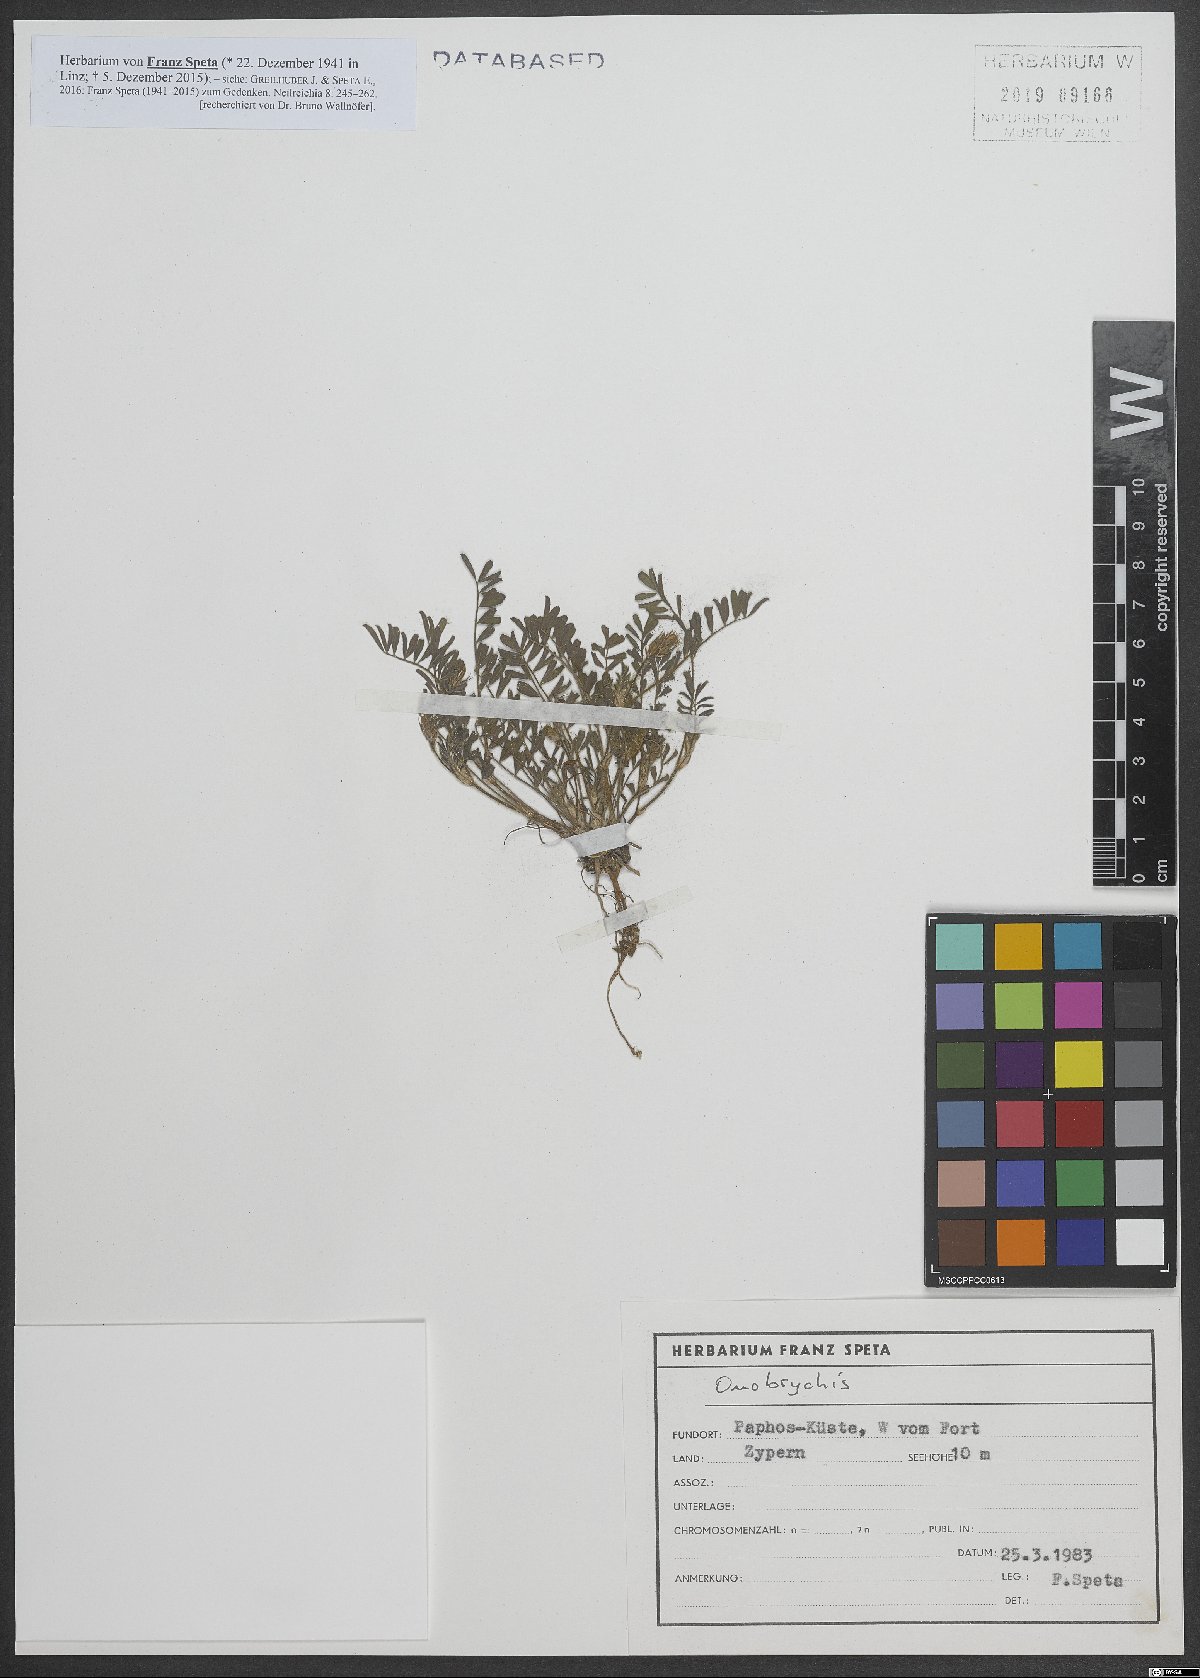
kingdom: Plantae
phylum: Tracheophyta
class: Magnoliopsida
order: Fabales
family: Fabaceae
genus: Onobrychis
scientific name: Onobrychis
